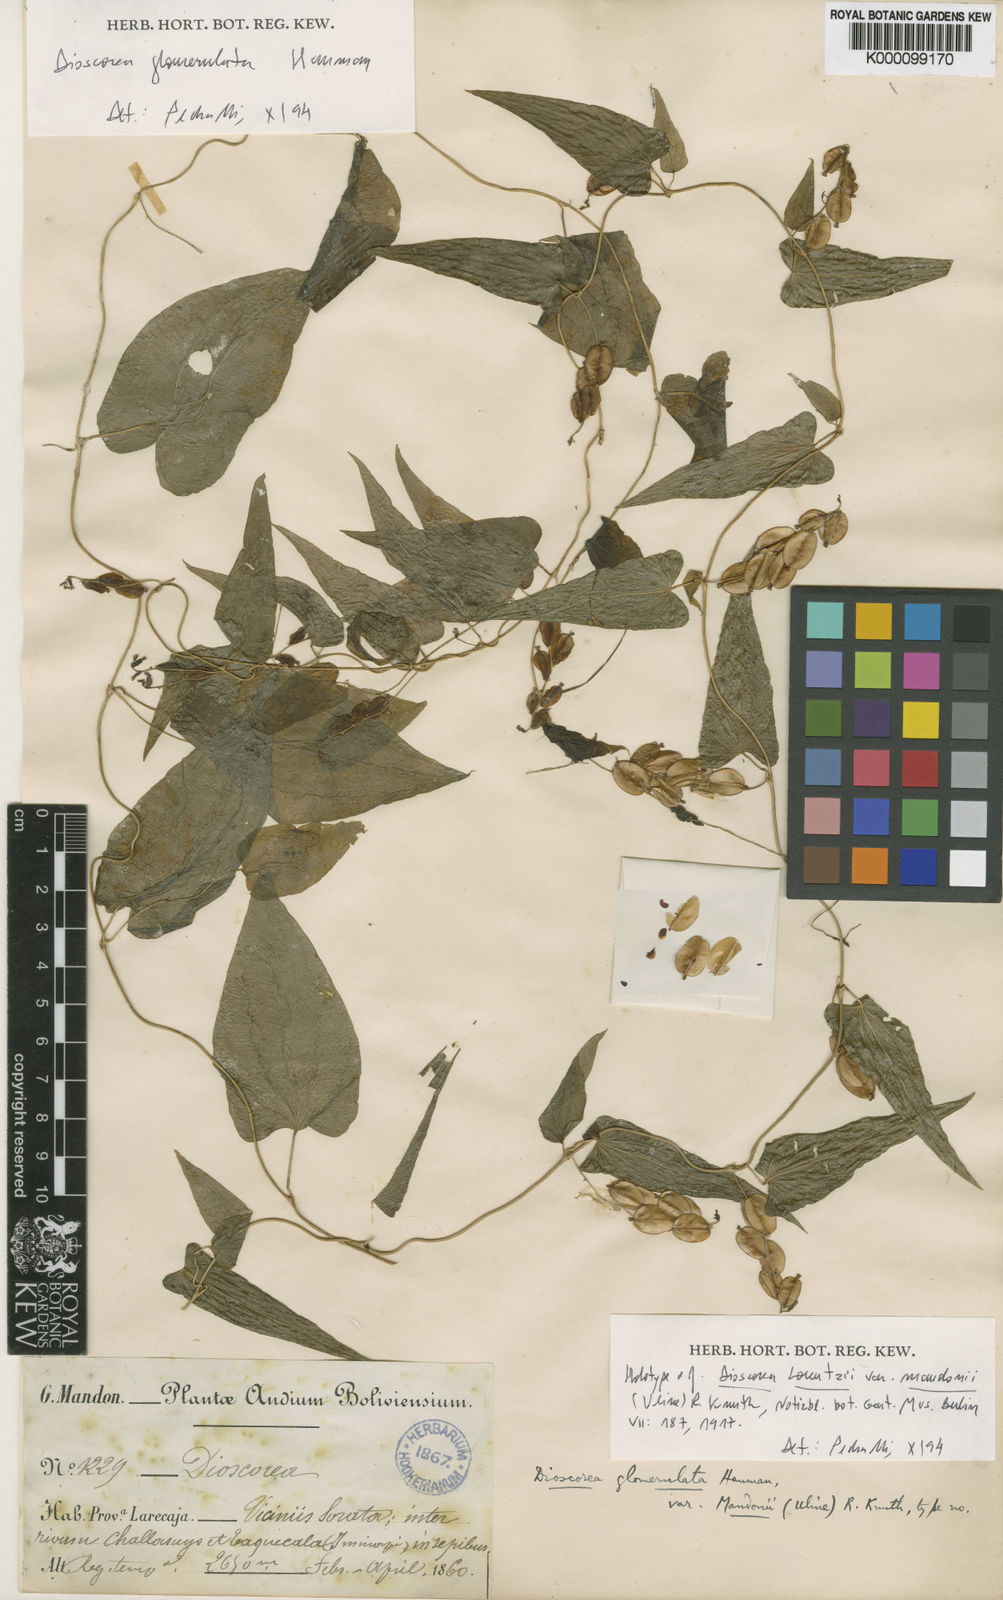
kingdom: Plantae
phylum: Tracheophyta
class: Liliopsida
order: Dioscoreales
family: Dioscoreaceae
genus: Dioscorea
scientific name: Dioscorea glomerulata
